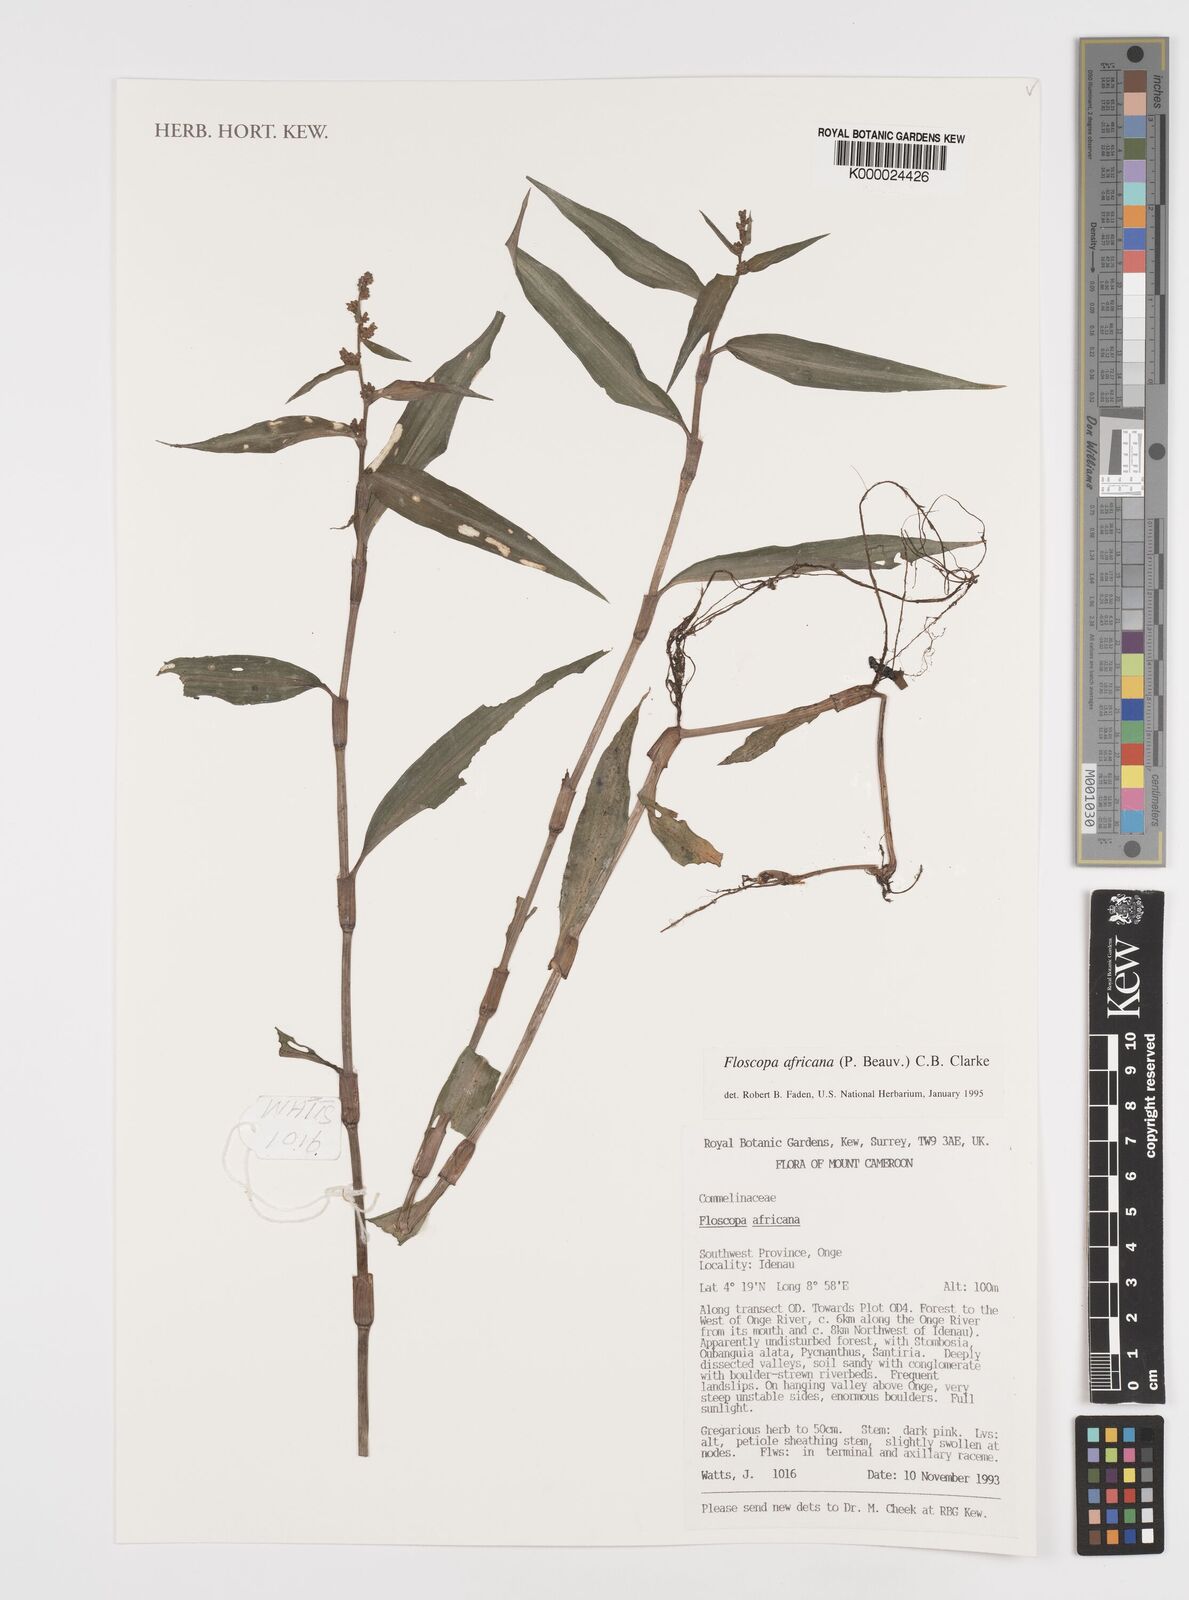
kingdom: Plantae
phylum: Tracheophyta
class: Liliopsida
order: Commelinales
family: Commelinaceae
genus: Floscopa
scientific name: Floscopa africana
